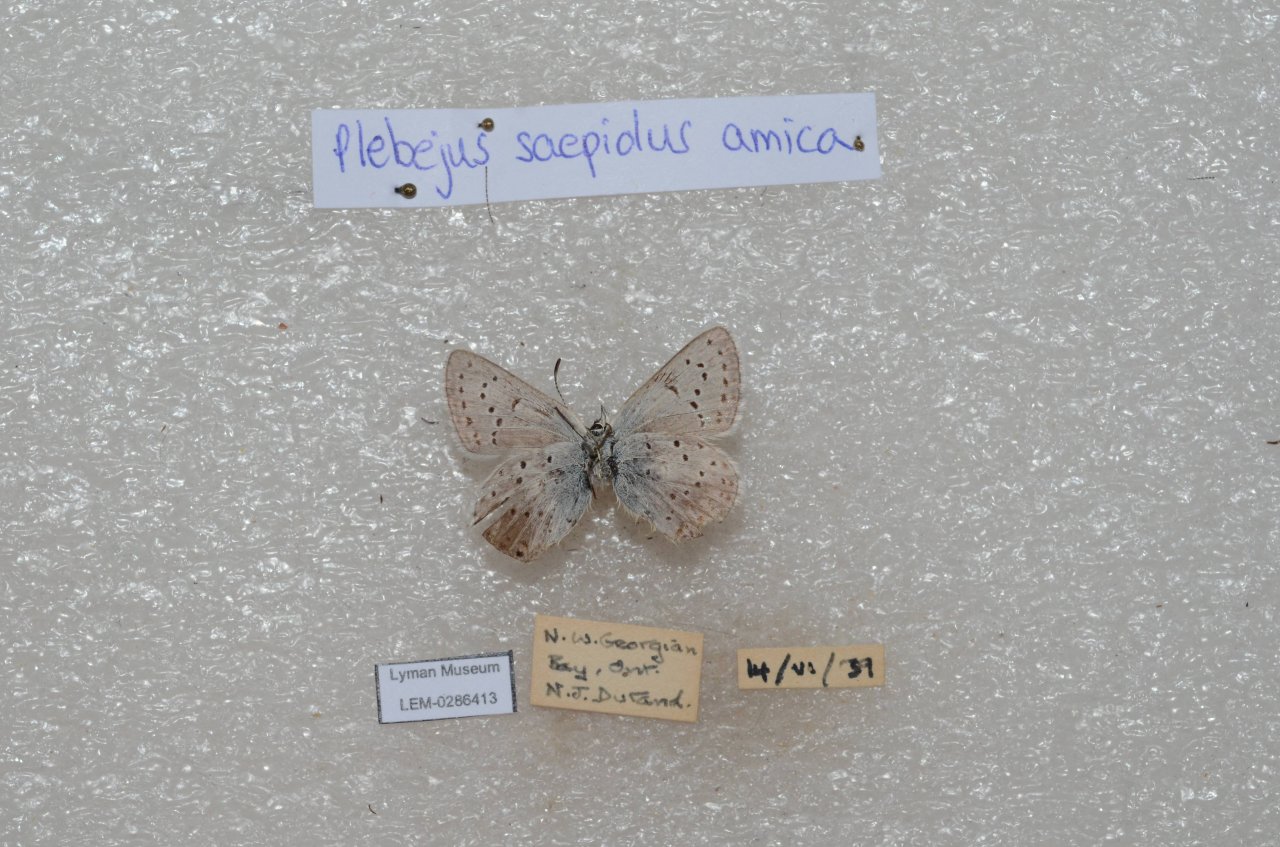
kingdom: Animalia
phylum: Arthropoda
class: Insecta
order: Lepidoptera
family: Lycaenidae
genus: Plebejus
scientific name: Plebejus saepiolus
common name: Greenish Blue
